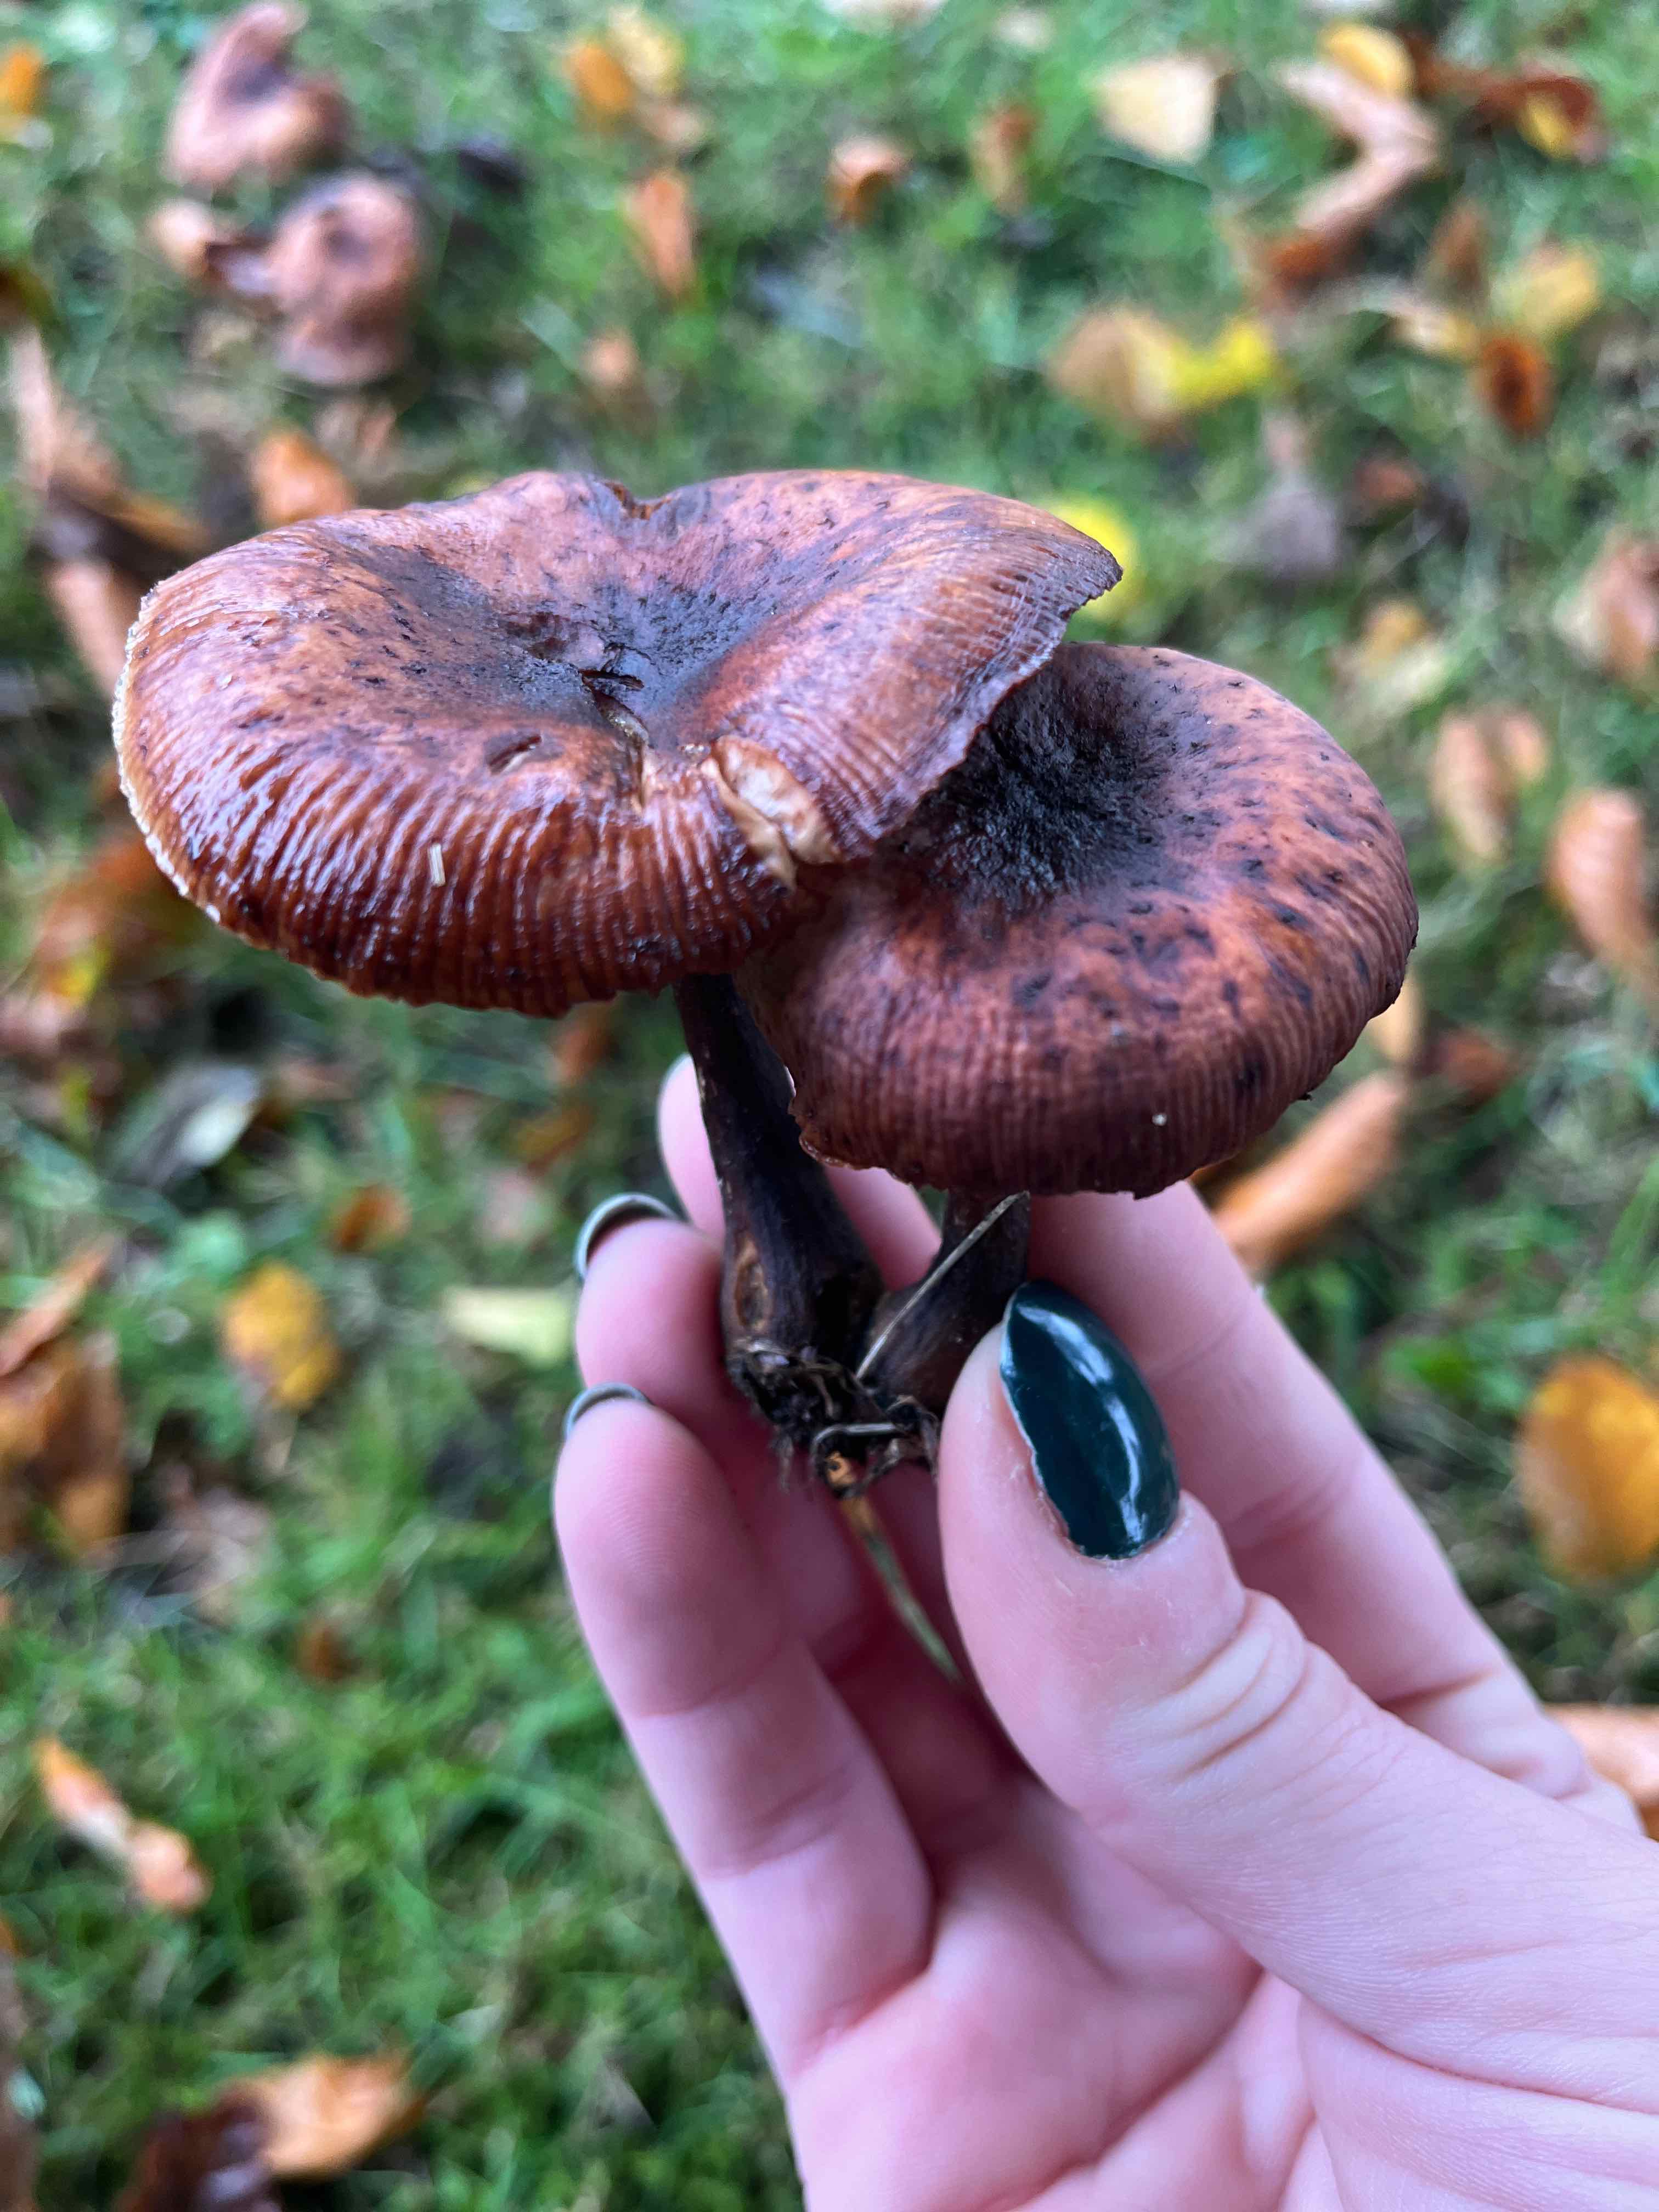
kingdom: Fungi
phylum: Basidiomycota
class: Agaricomycetes
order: Agaricales
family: Physalacriaceae
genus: Armillaria
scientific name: Armillaria
